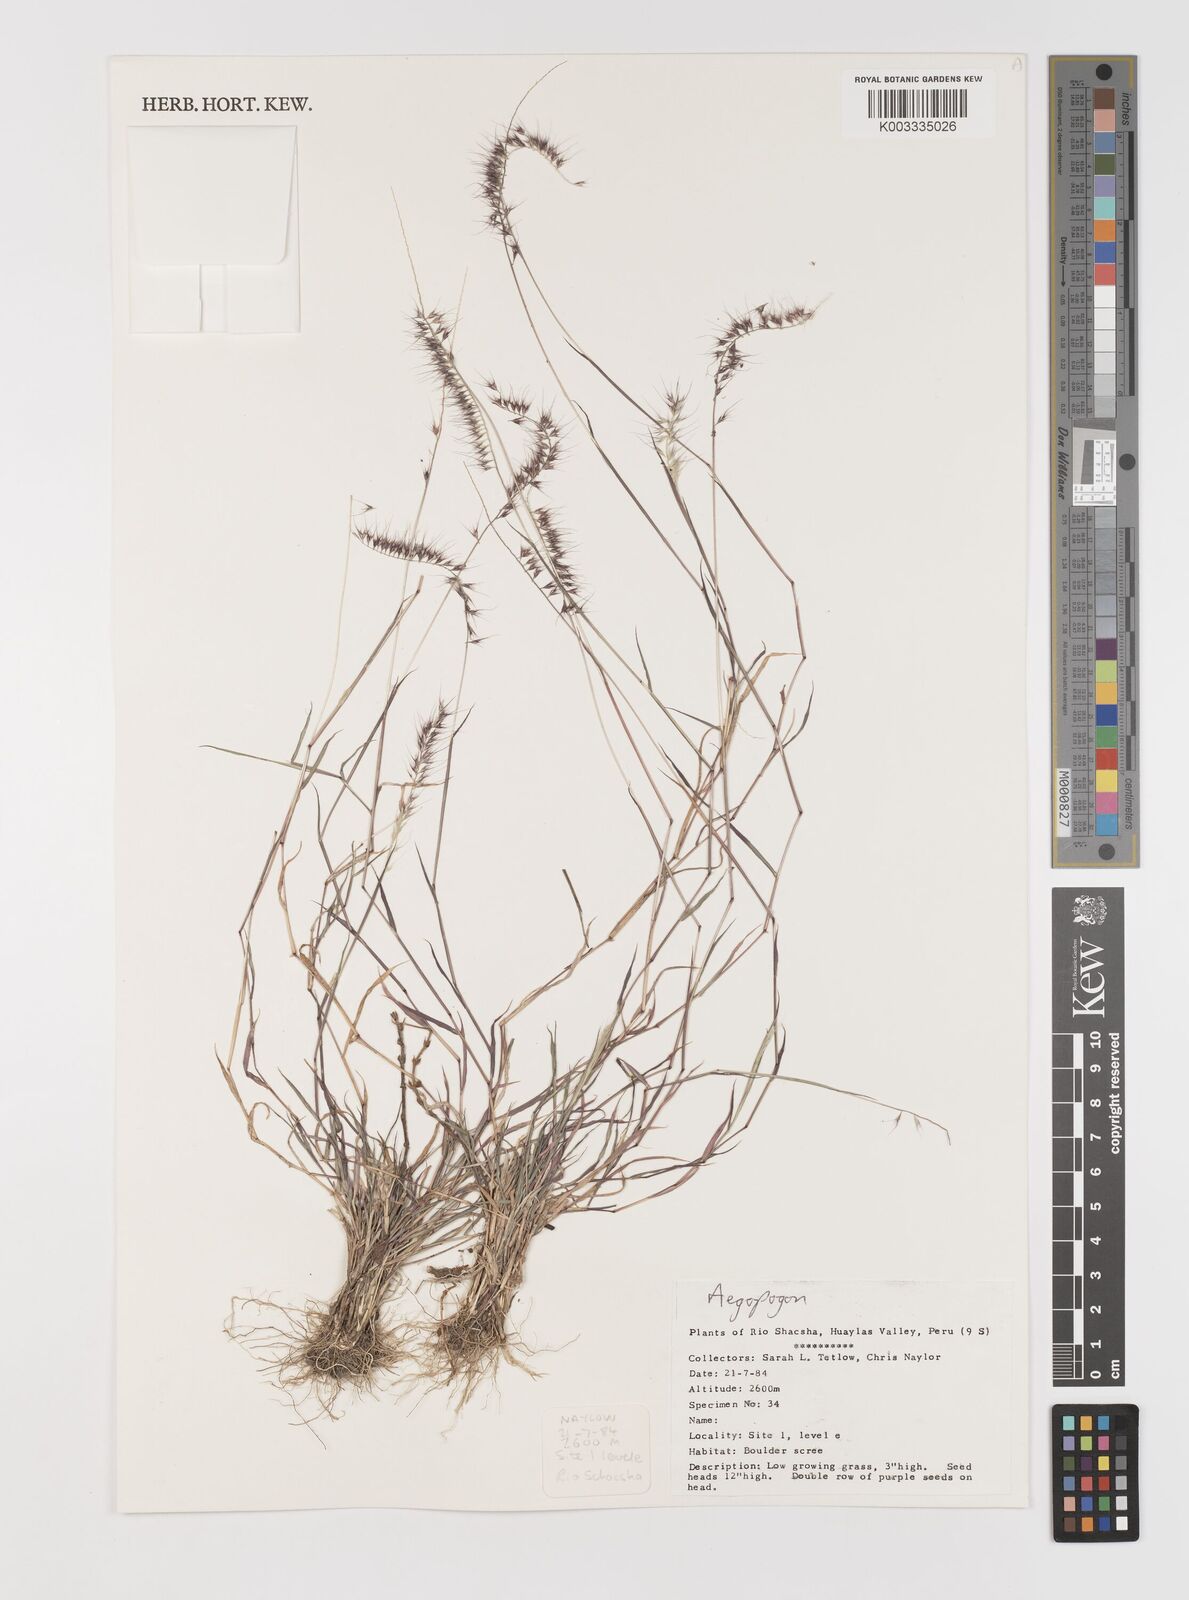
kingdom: Plantae
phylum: Tracheophyta
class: Liliopsida
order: Poales
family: Poaceae
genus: Muhlenbergia
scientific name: Muhlenbergia cenchroides
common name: Relaxgrass
